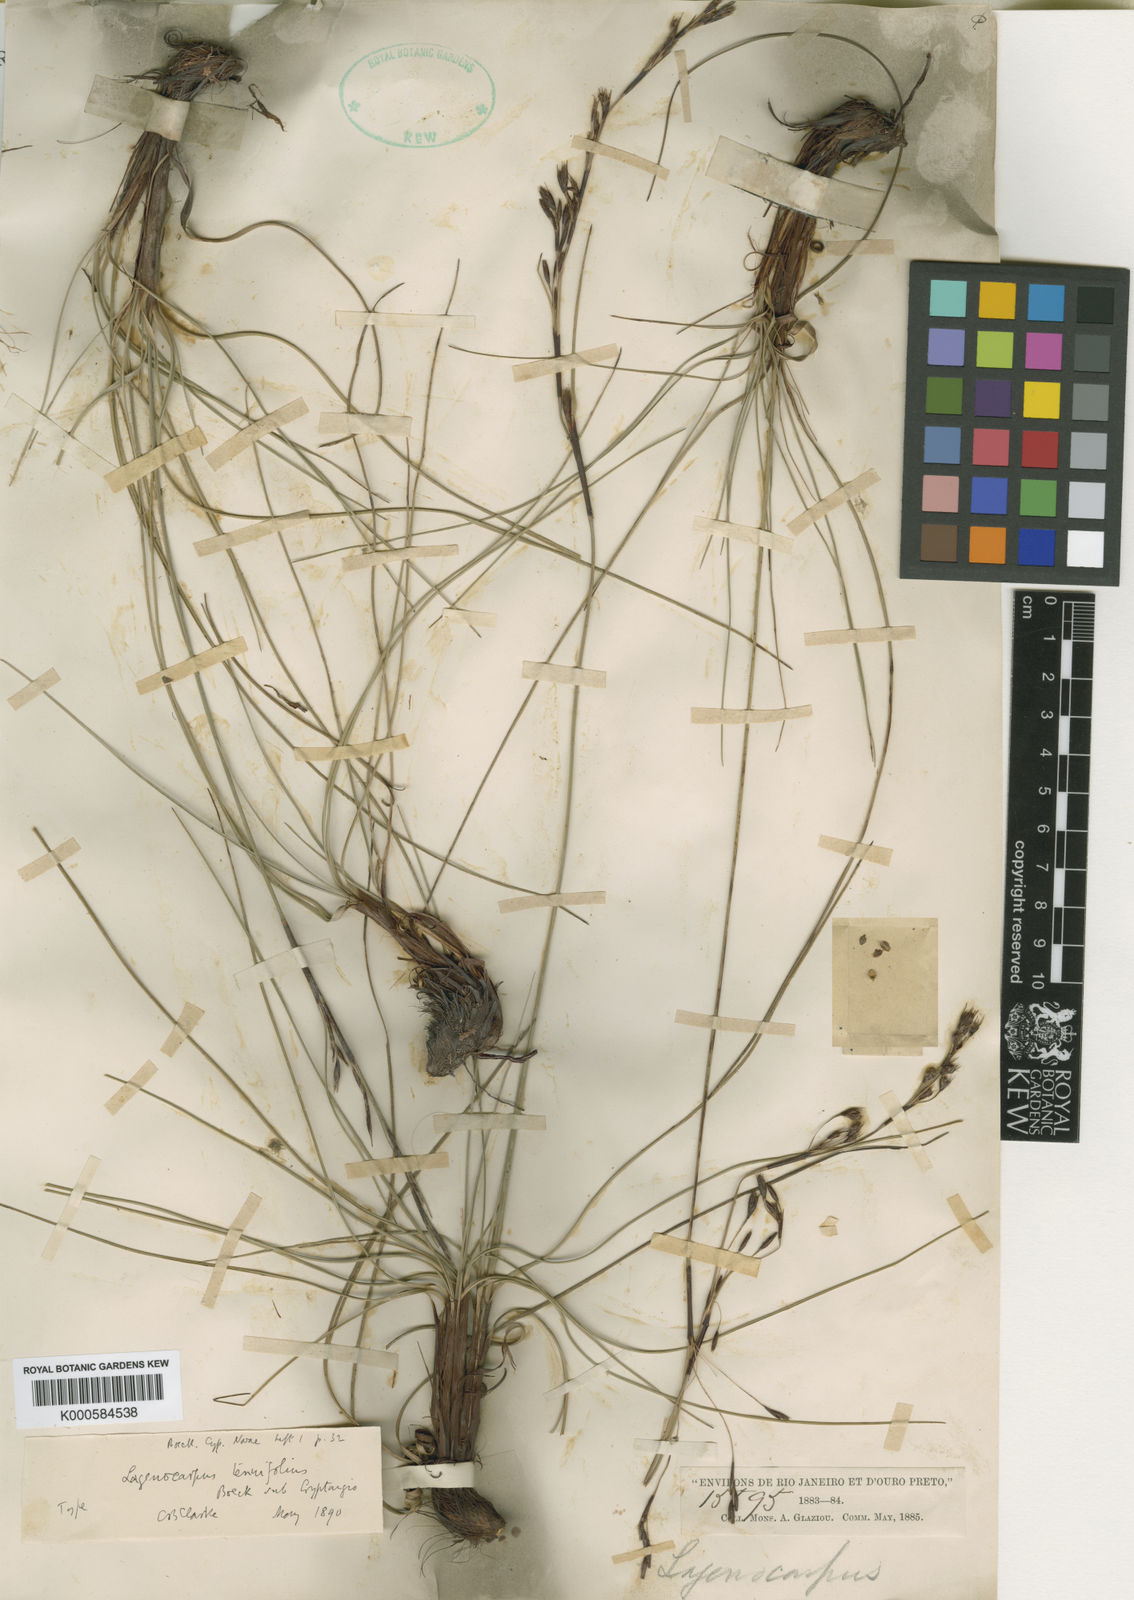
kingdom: Plantae
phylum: Tracheophyta
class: Liliopsida
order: Poales
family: Cyperaceae
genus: Lagenocarpus
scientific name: Lagenocarpus rigidus
